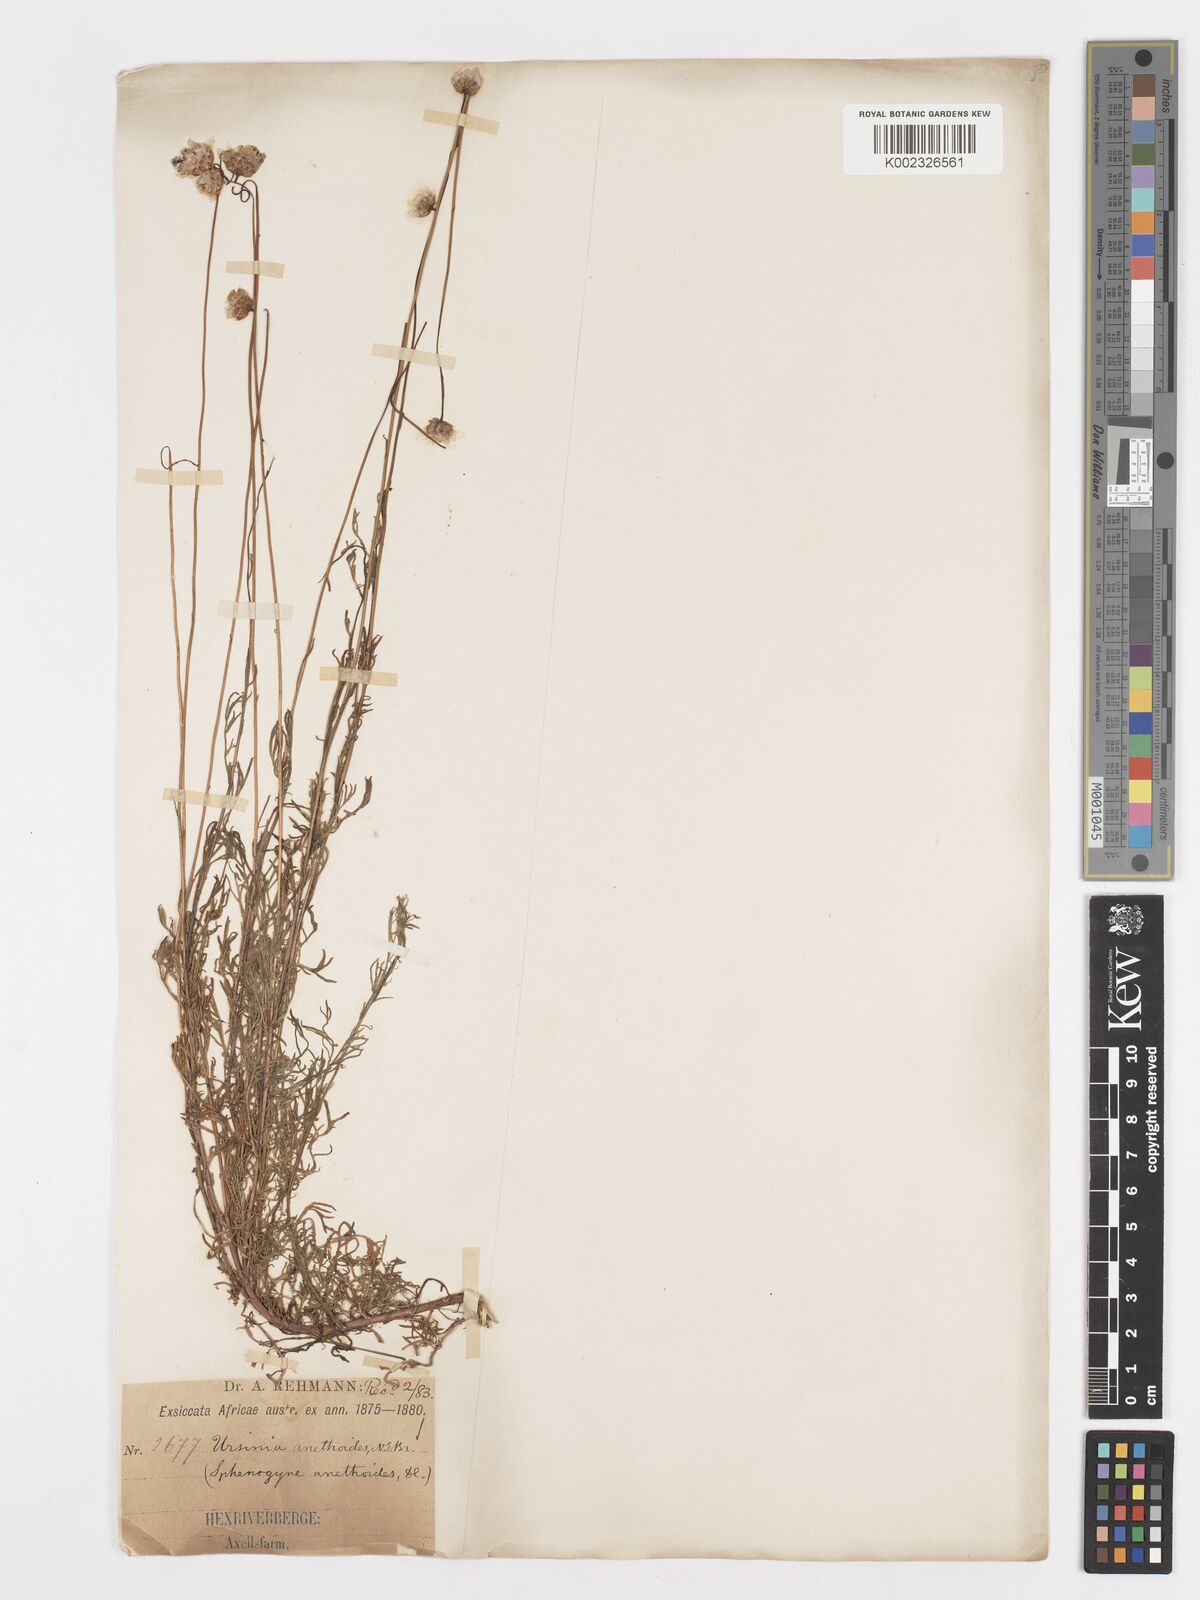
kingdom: Plantae
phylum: Tracheophyta
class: Magnoliopsida
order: Asterales
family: Asteraceae
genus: Ursinia
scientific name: Ursinia anethoides
